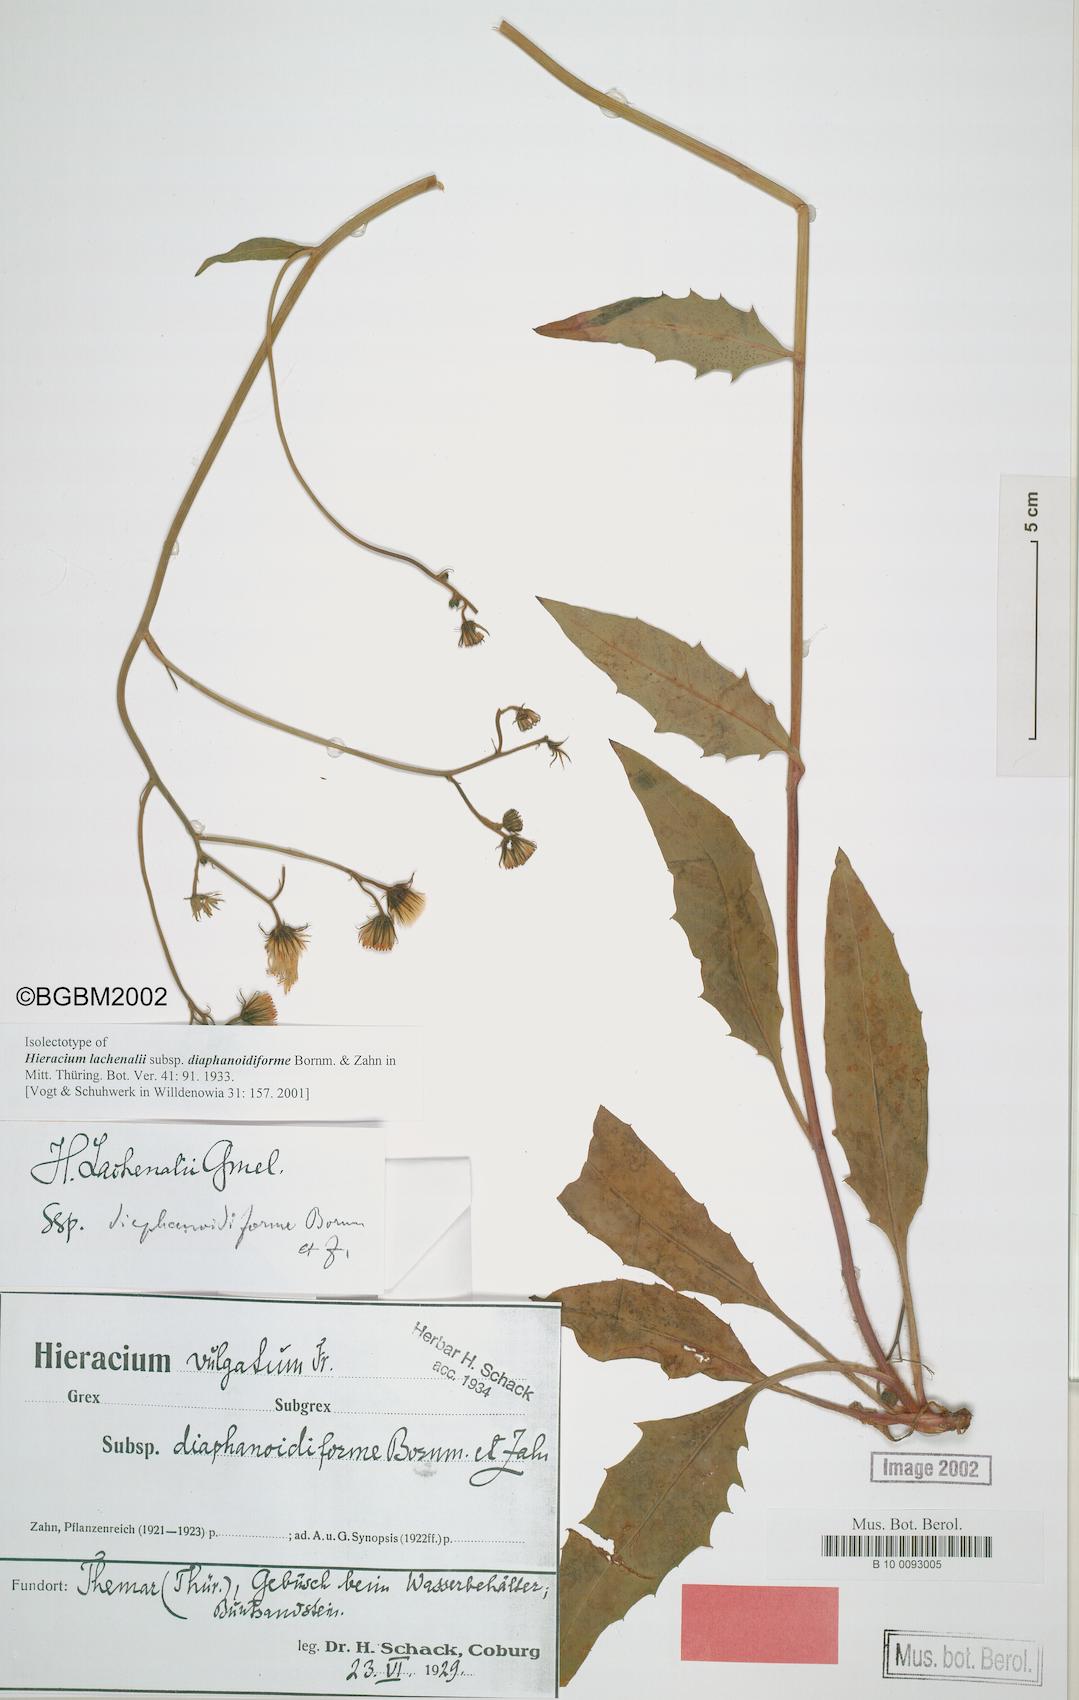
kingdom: Plantae
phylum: Tracheophyta
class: Magnoliopsida
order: Asterales
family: Asteraceae
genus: Hieracium
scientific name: Hieracium lachenalii
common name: Common hawkweed
